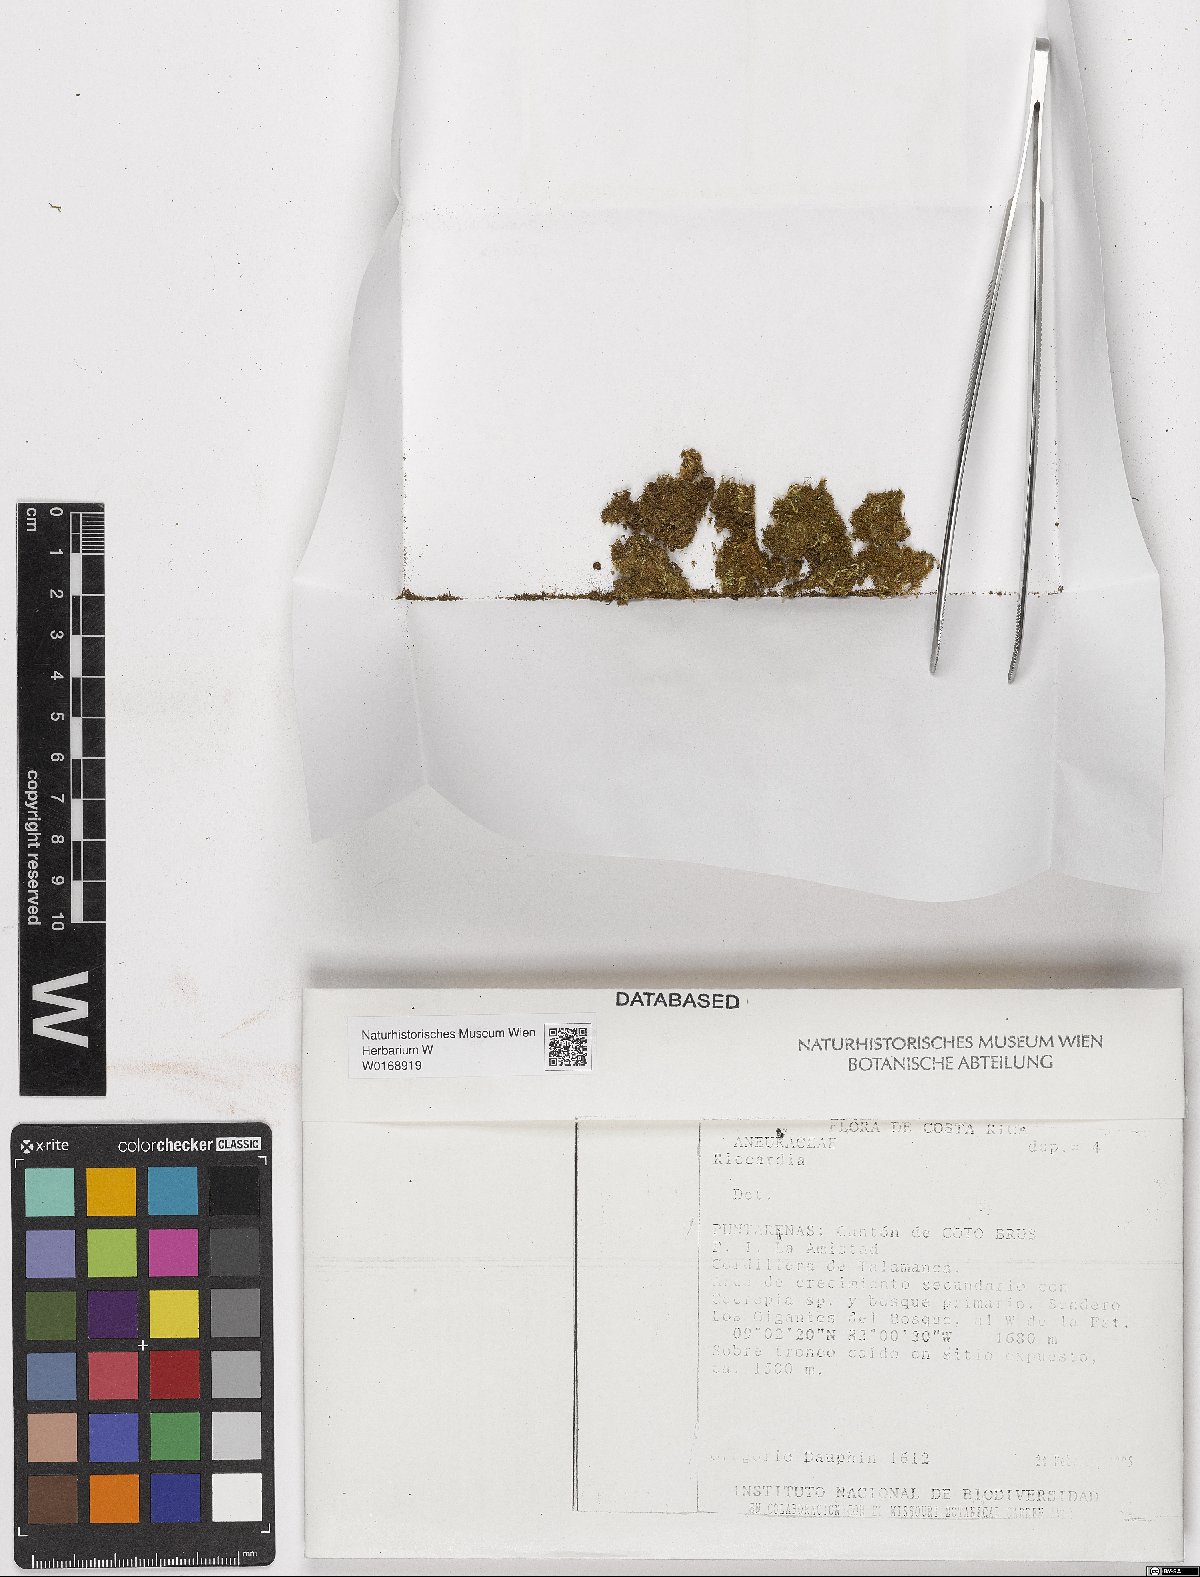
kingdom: Plantae
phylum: Marchantiophyta
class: Jungermanniopsida
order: Metzgeriales
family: Aneuraceae
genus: Riccardia
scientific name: Riccardia
